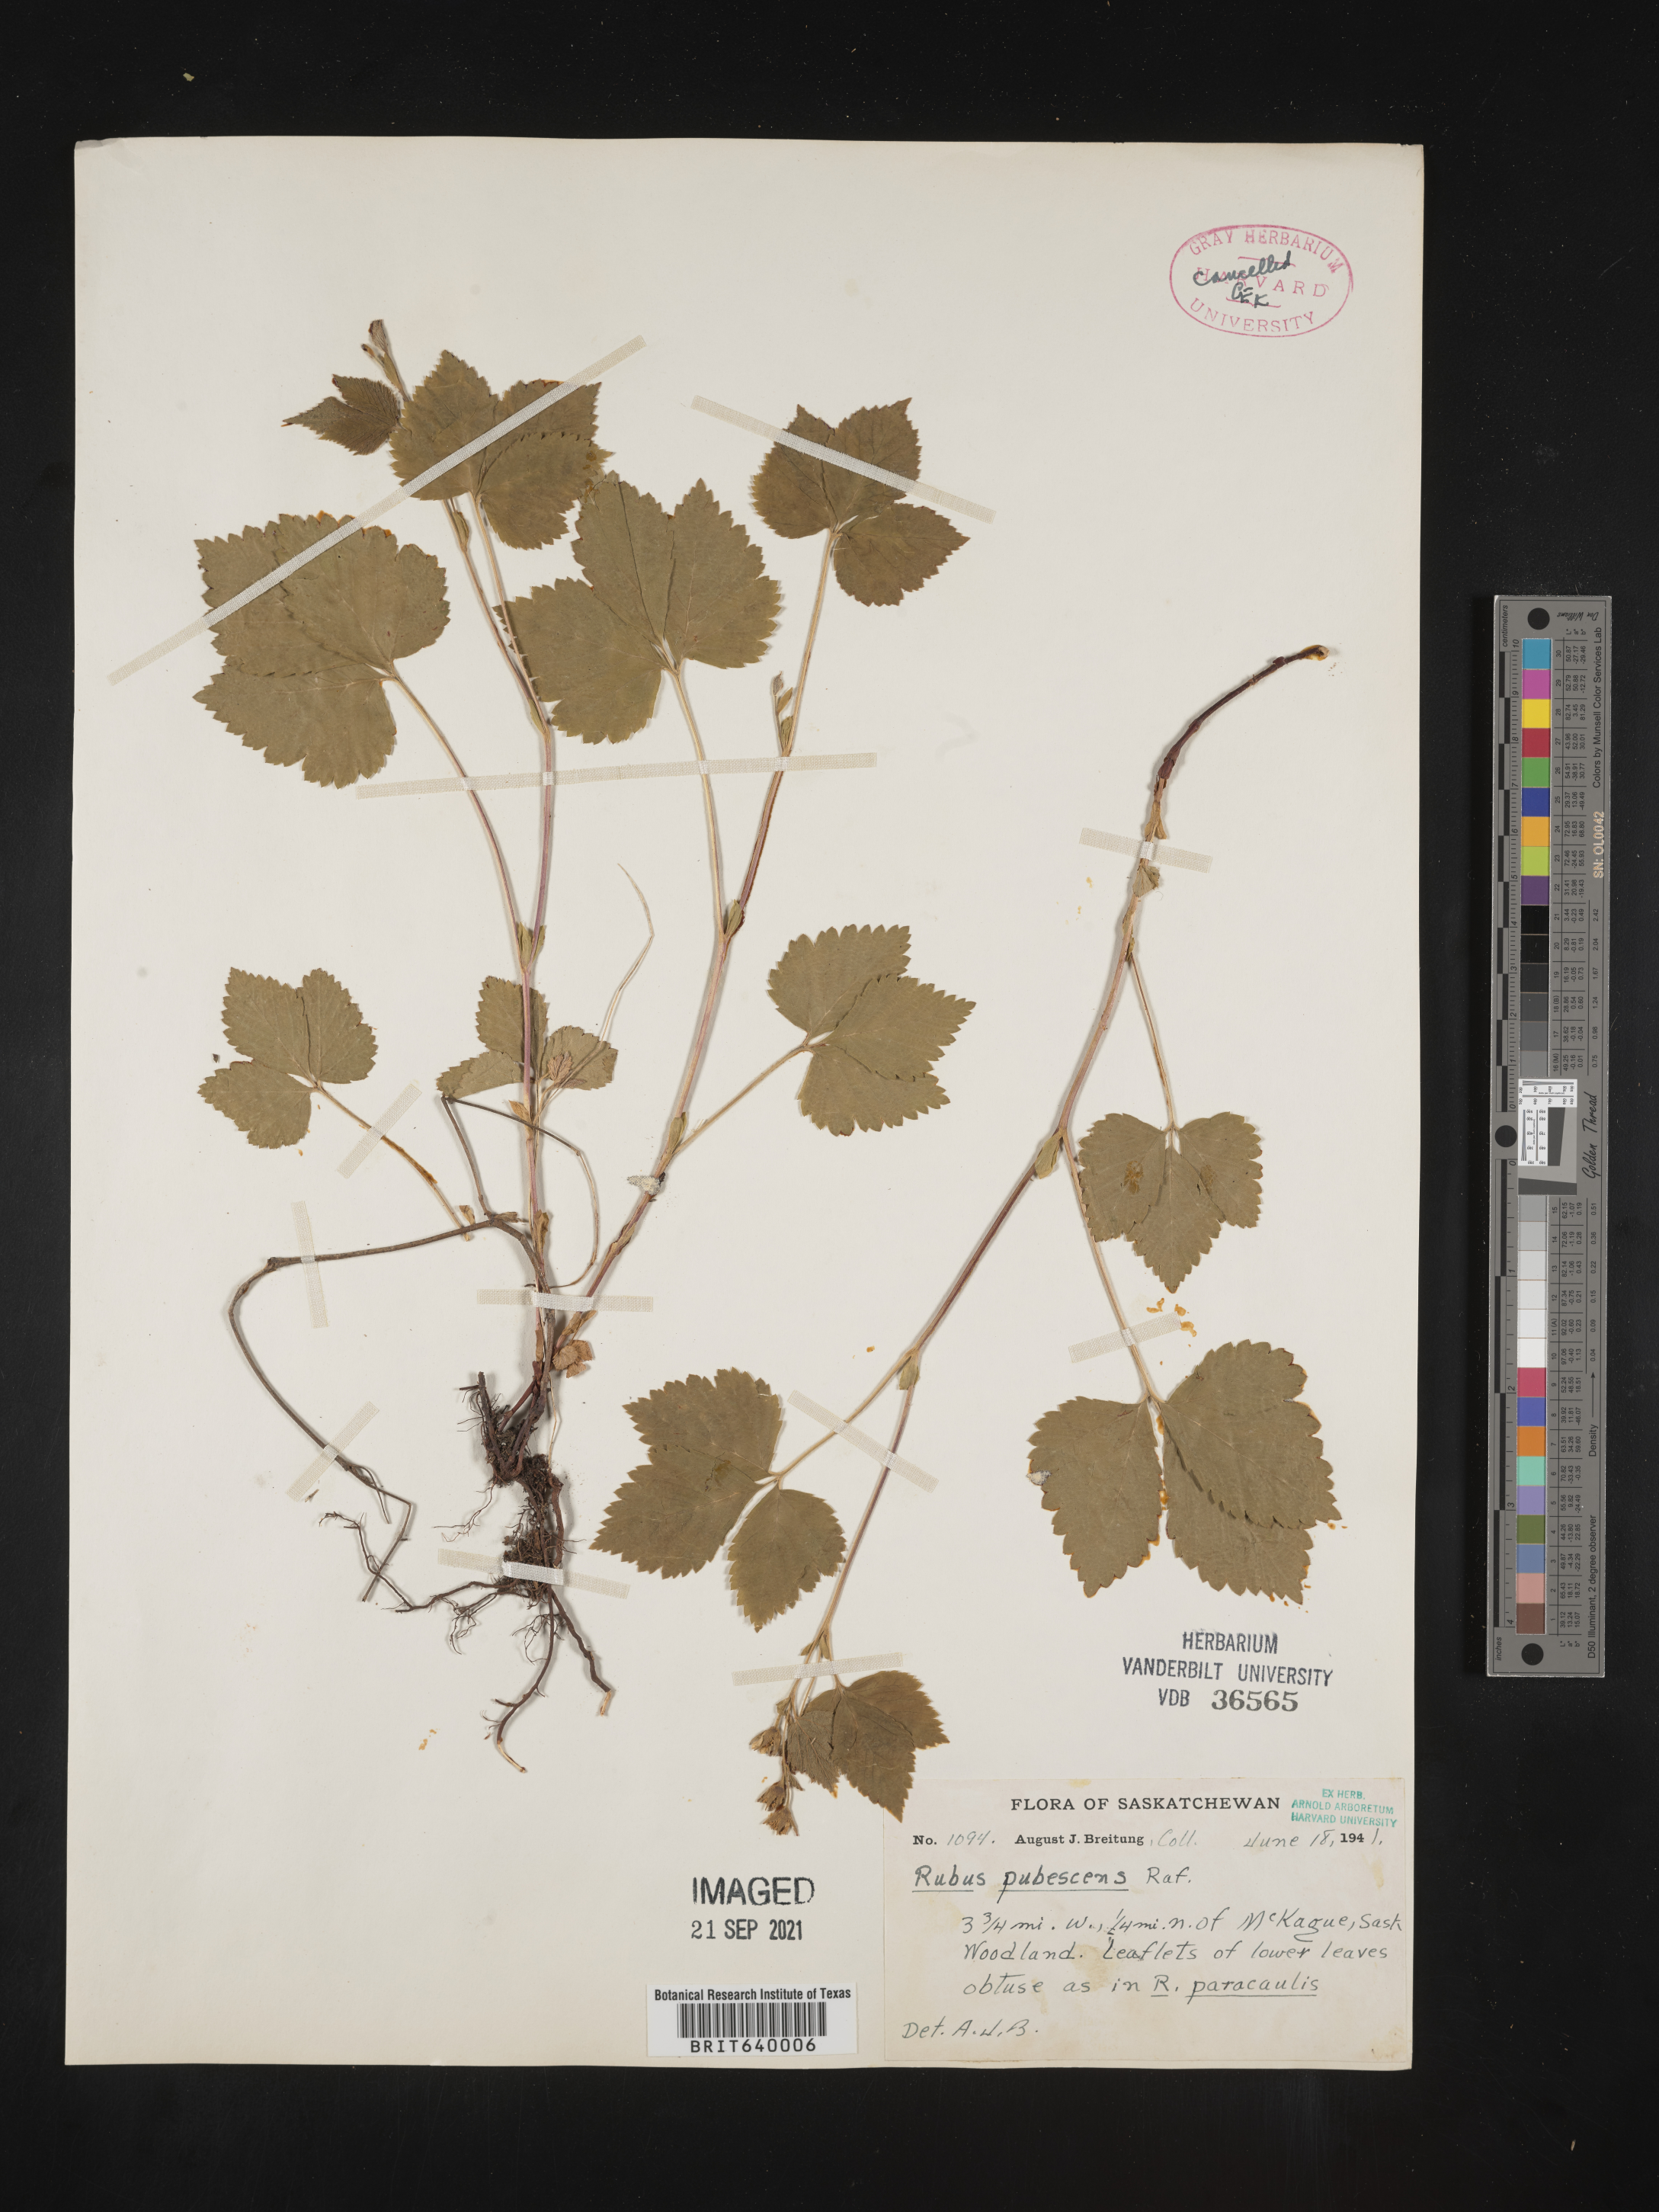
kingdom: Plantae
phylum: Tracheophyta
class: Magnoliopsida
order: Rosales
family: Rosaceae
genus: Rubus
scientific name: Rubus
